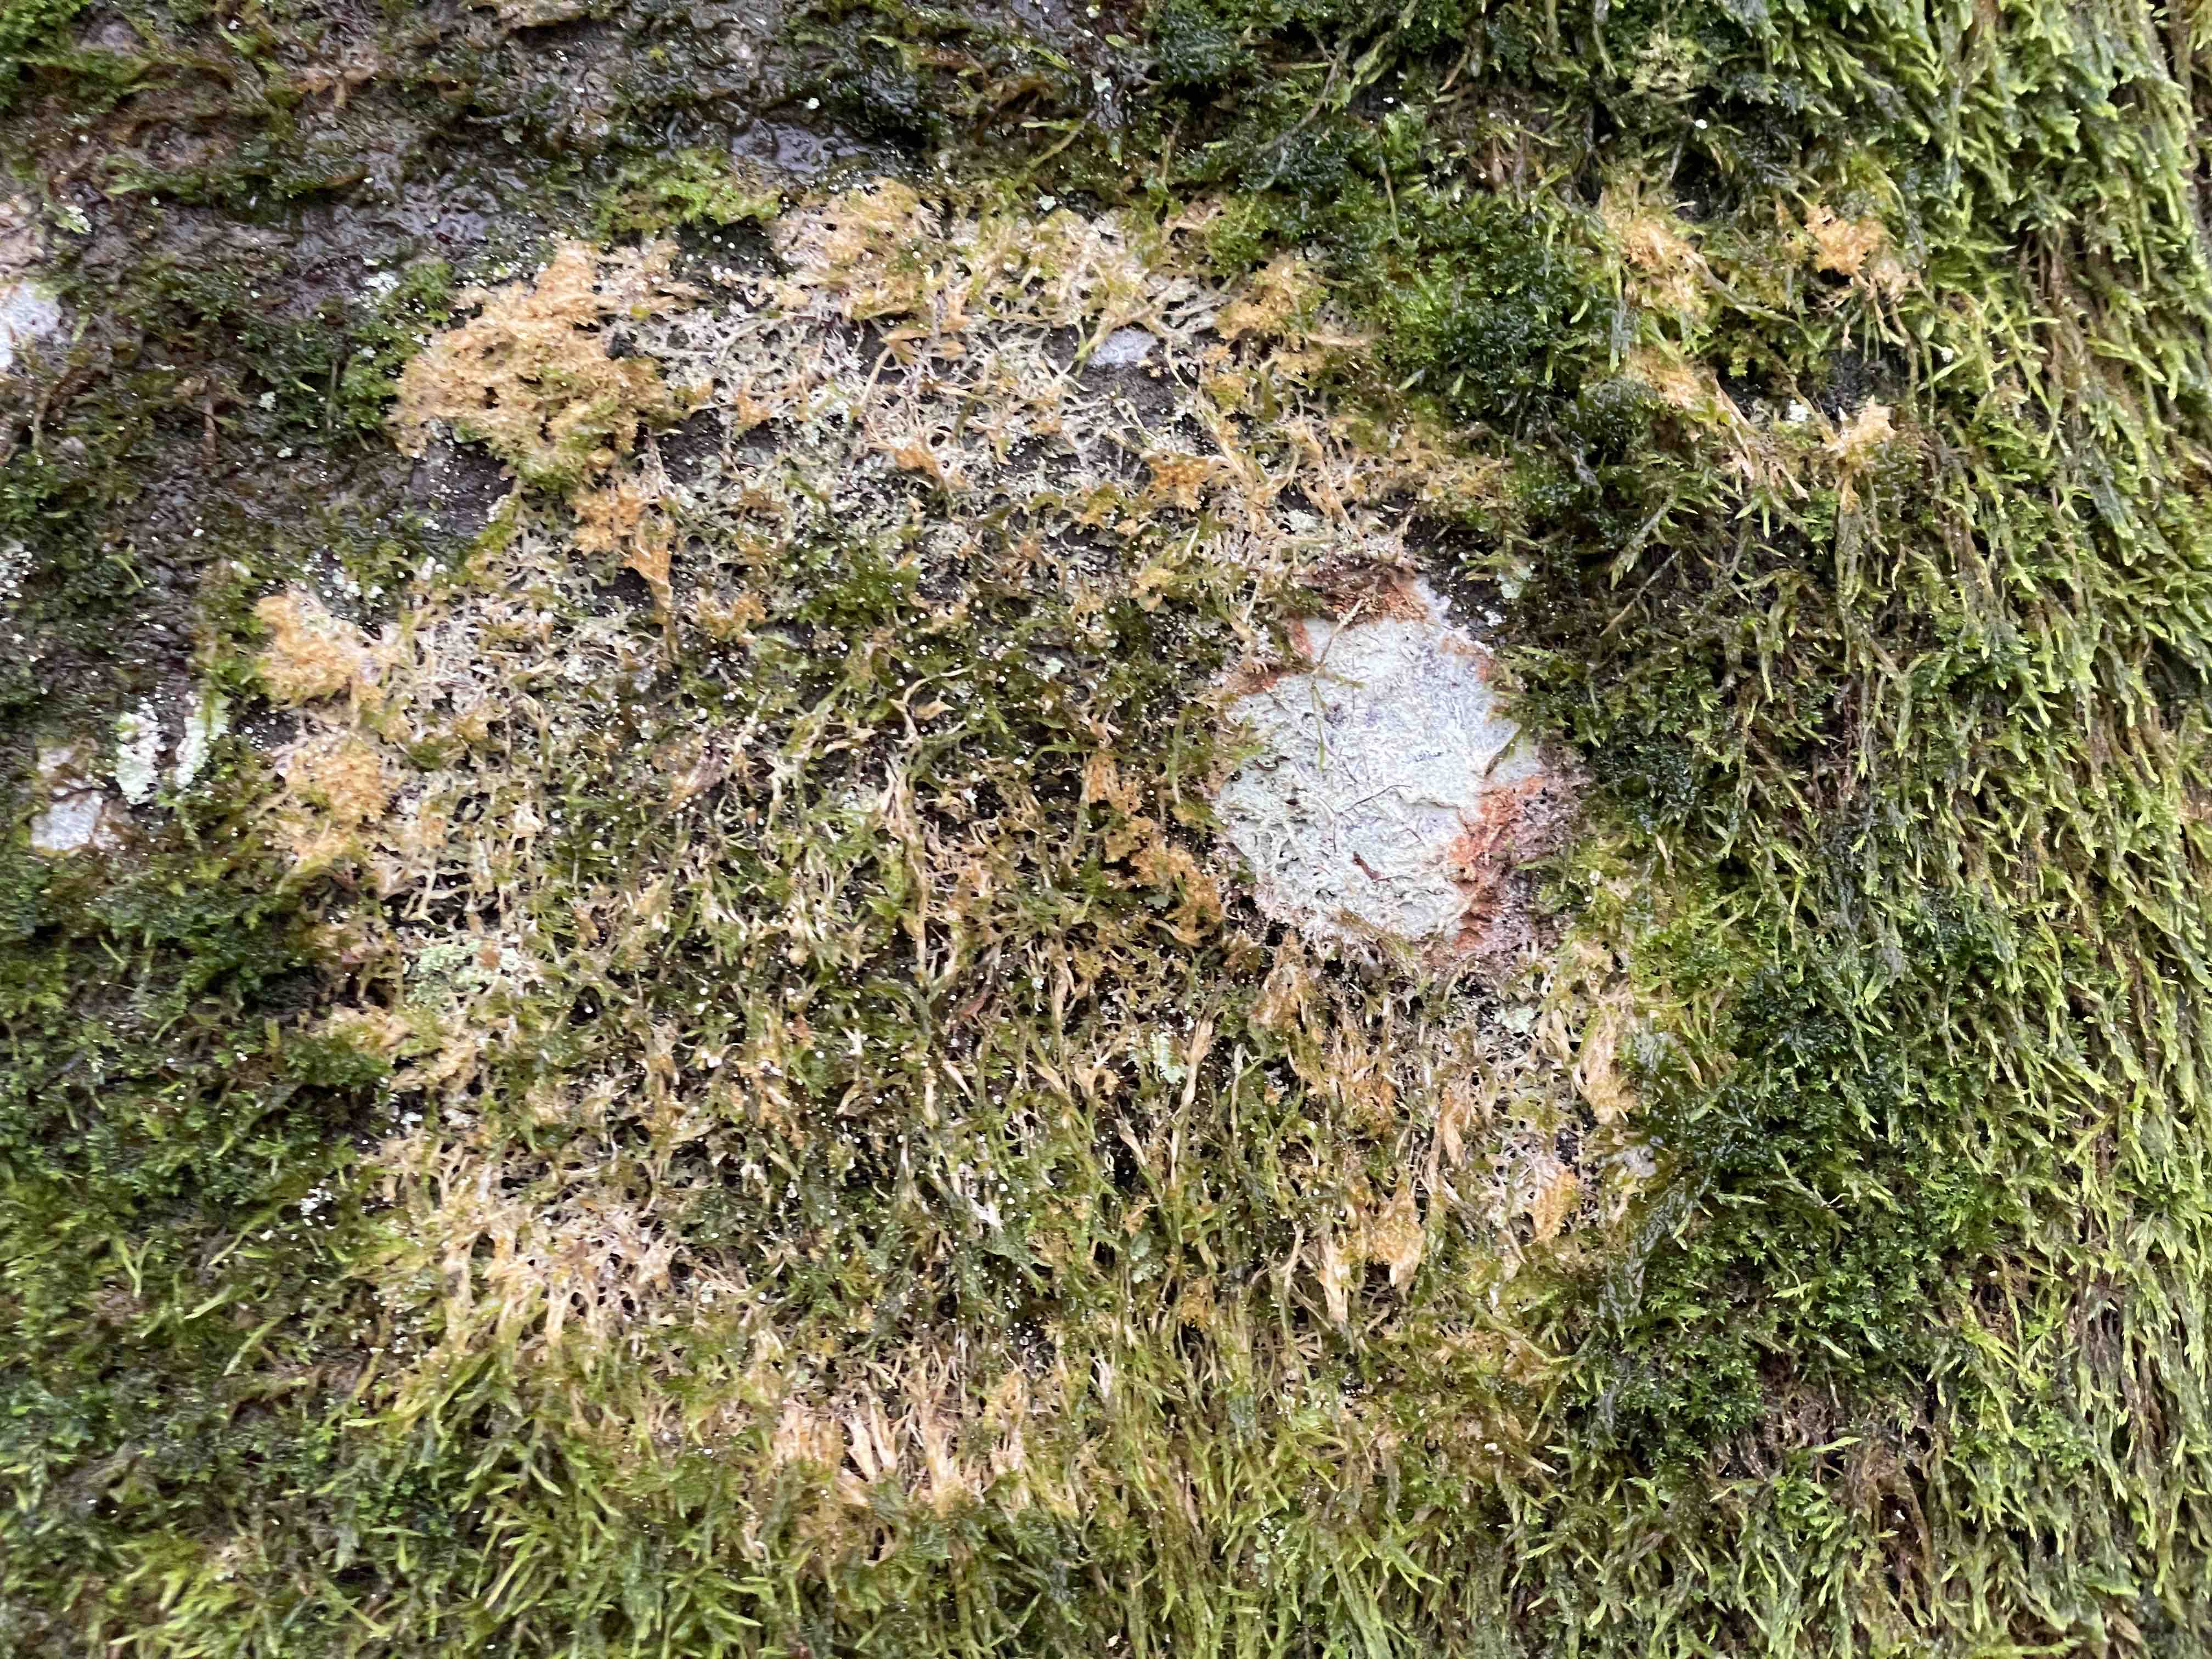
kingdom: Fungi
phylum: Basidiomycota
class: Agaricomycetes
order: Agaricales
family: Chromocyphellaceae
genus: Chromocyphella
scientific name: Chromocyphella muscicola
